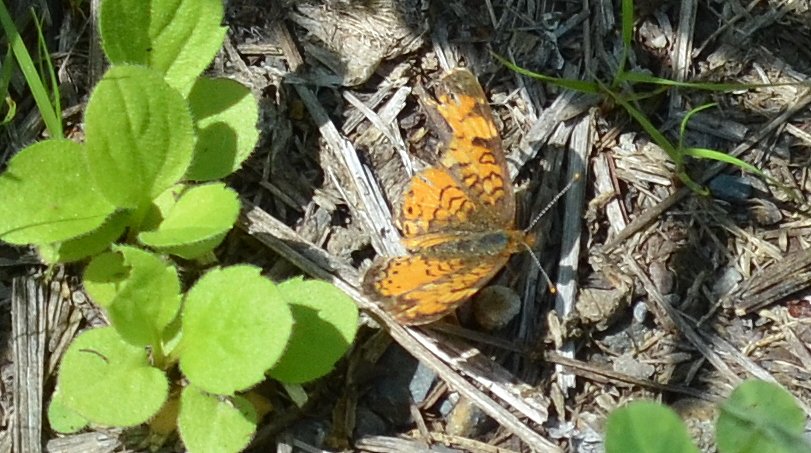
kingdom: Animalia
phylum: Arthropoda
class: Insecta
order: Lepidoptera
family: Nymphalidae
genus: Phyciodes
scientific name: Phyciodes tharos
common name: Northern Crescent
